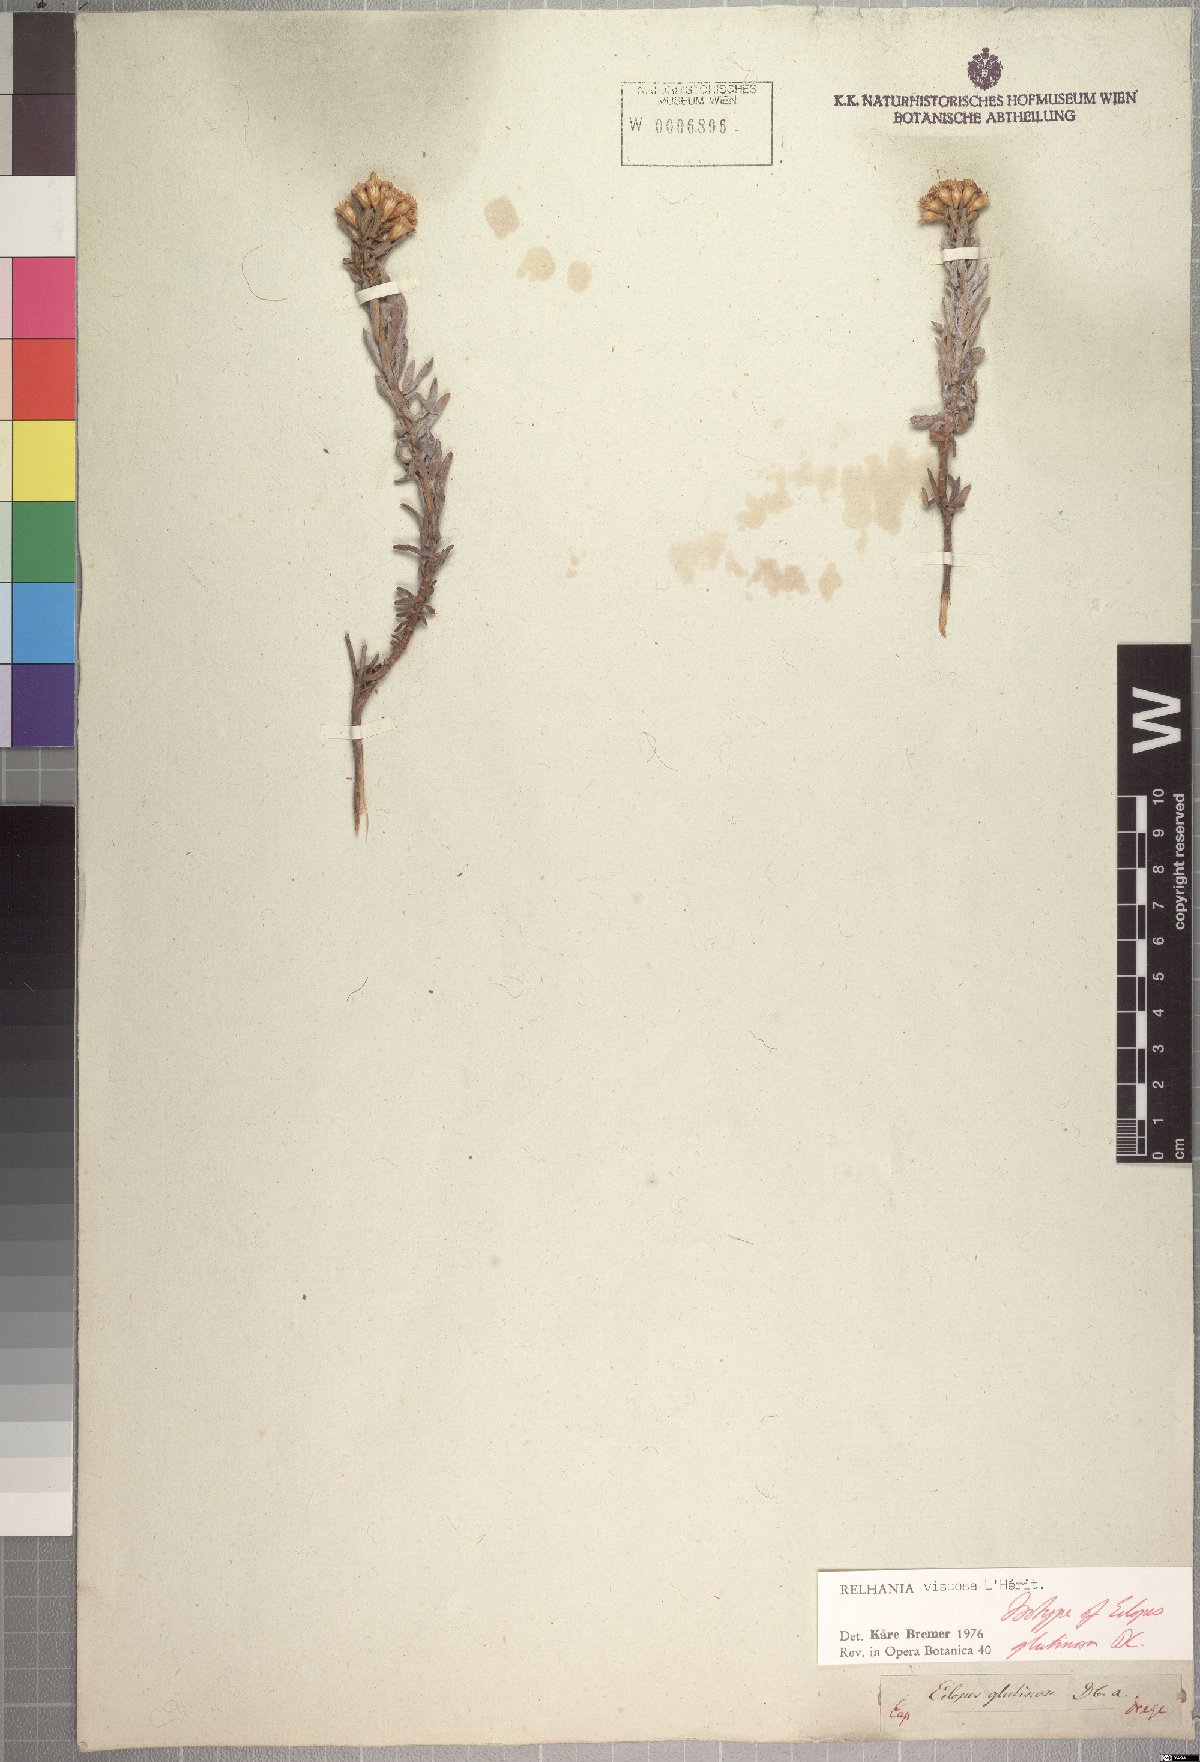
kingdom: Plantae
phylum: Tracheophyta
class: Magnoliopsida
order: Asterales
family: Asteraceae
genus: Oedera
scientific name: Oedera viscosa
